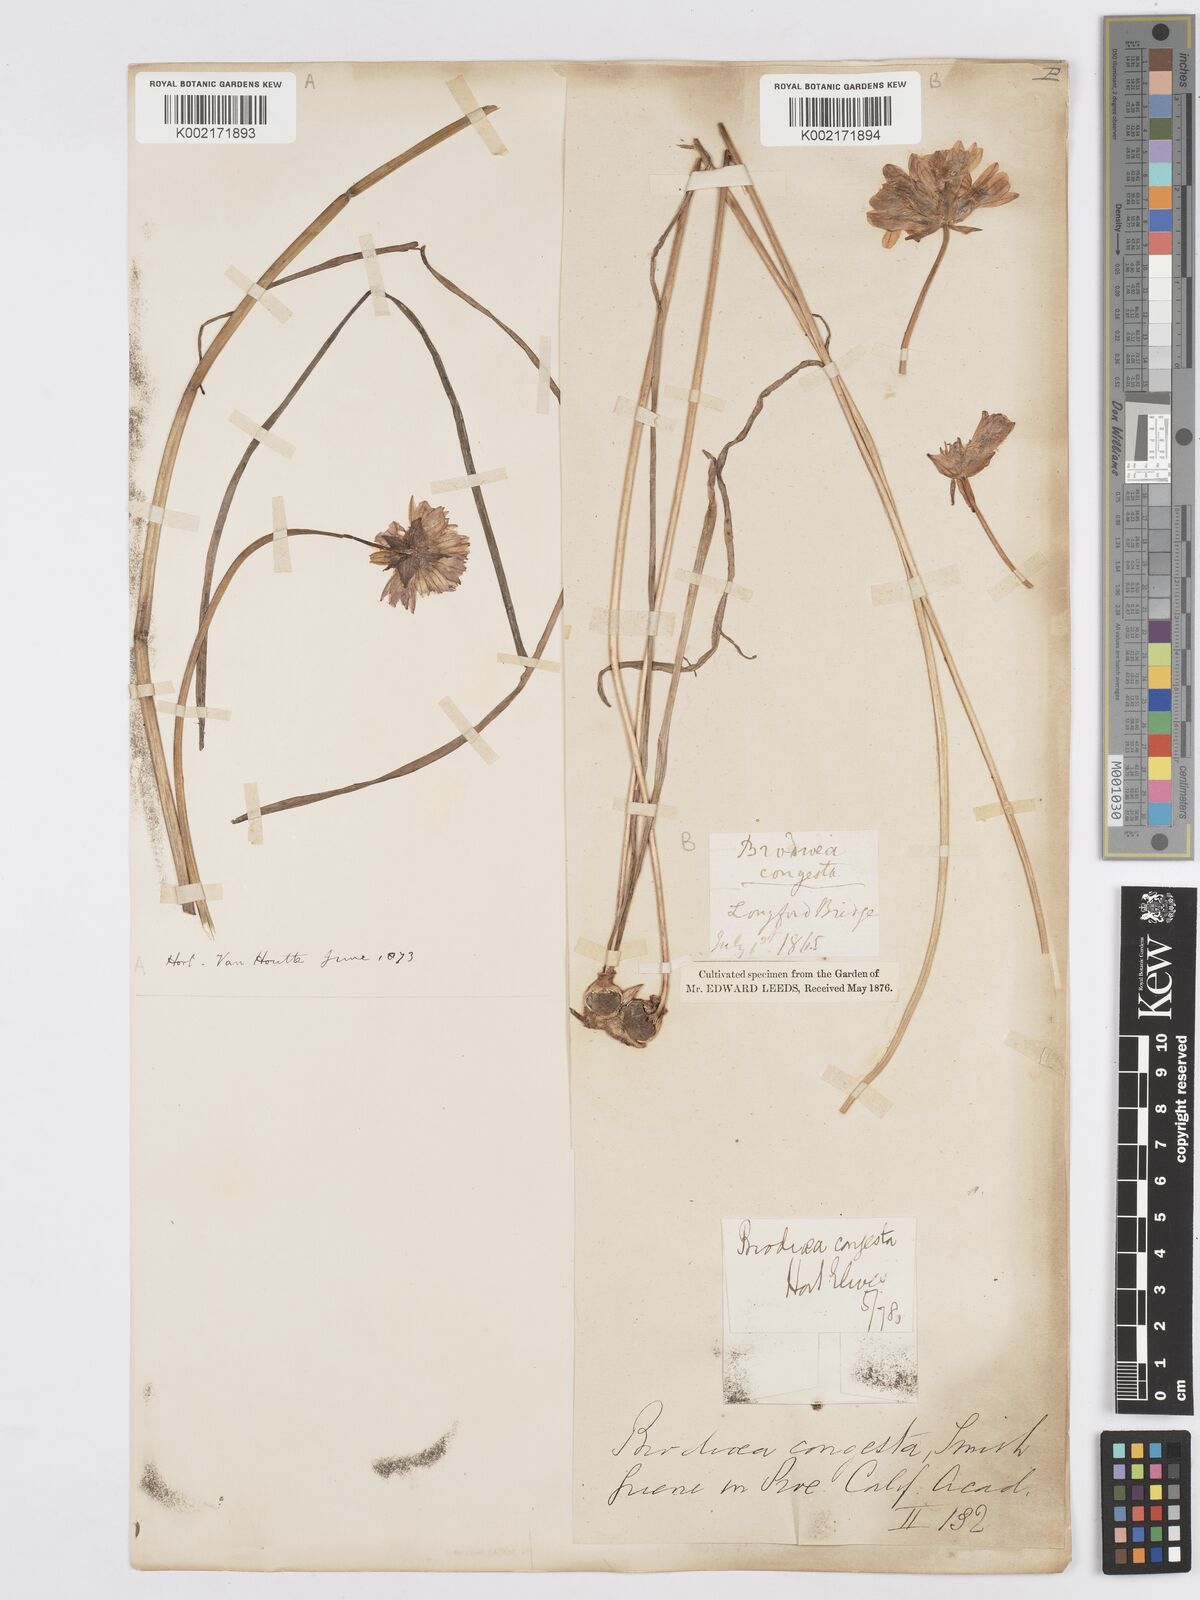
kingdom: Plantae
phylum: Tracheophyta
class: Liliopsida
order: Asparagales
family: Asparagaceae
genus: Dichelostemma
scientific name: Dichelostemma congestum
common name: Fork-tooth ookow
